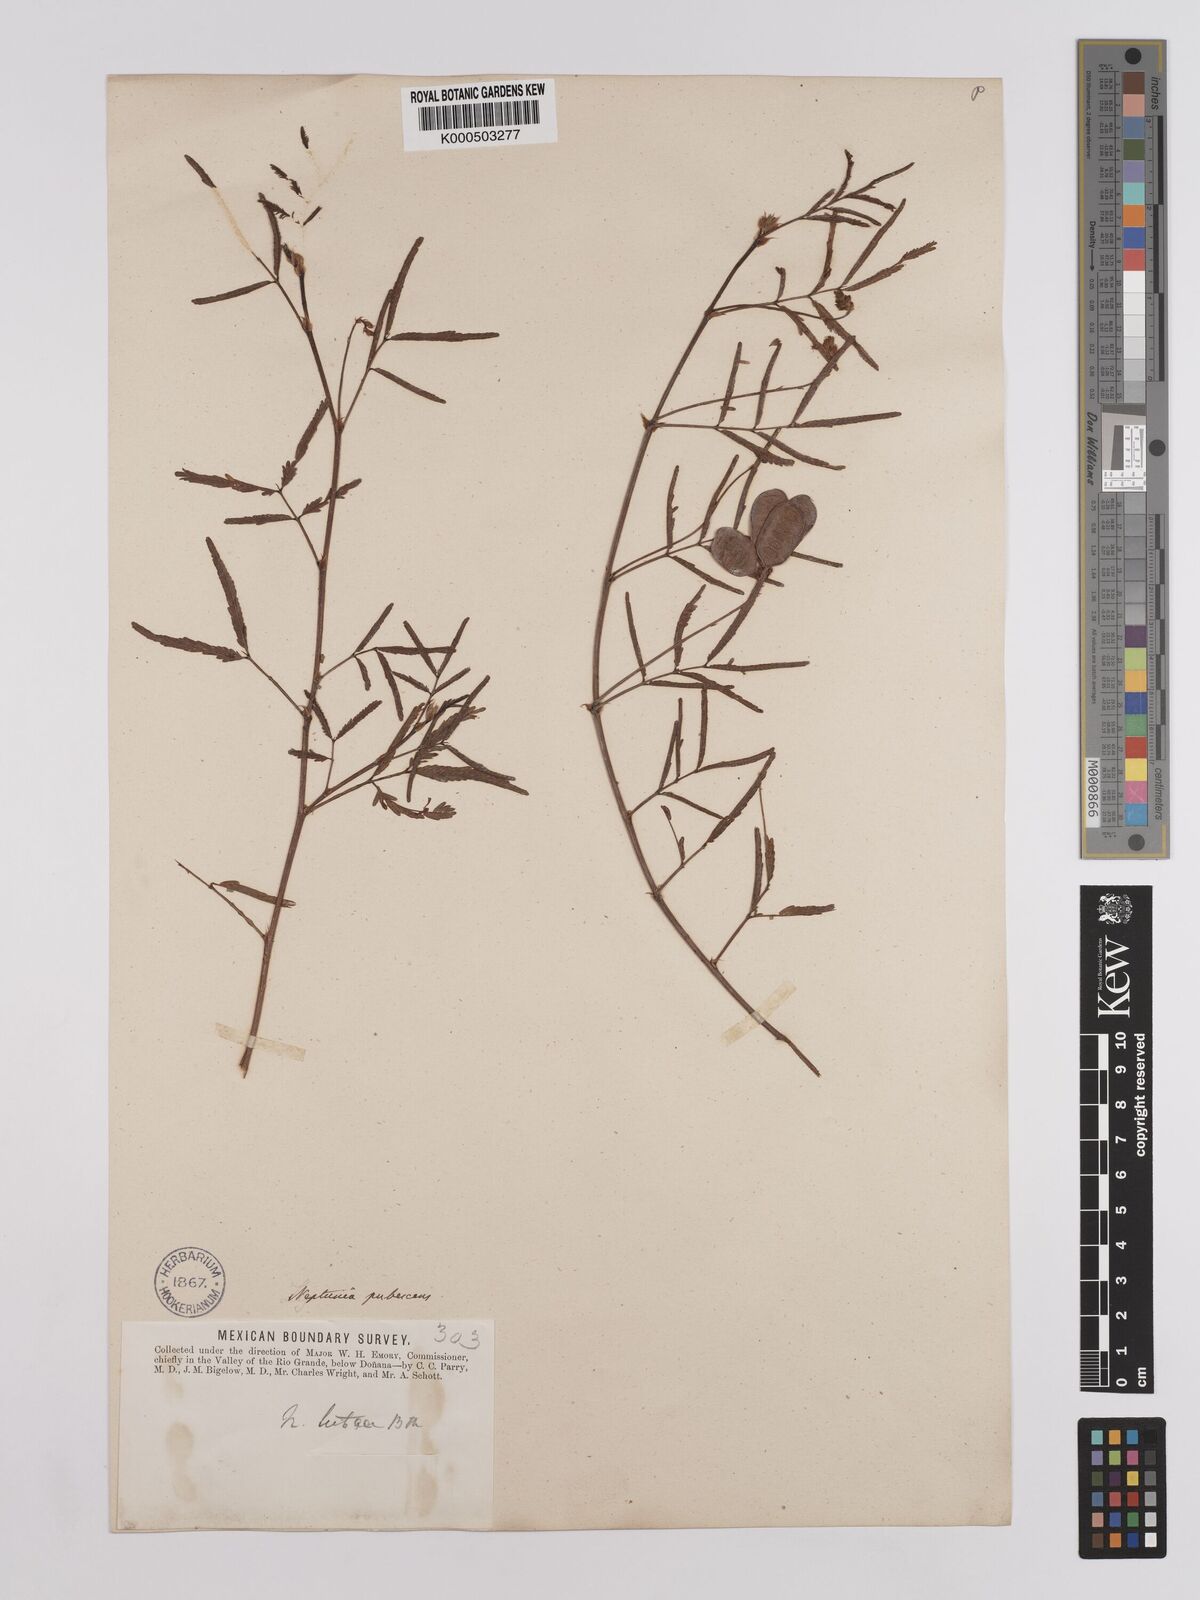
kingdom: Plantae
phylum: Tracheophyta
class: Magnoliopsida
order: Fabales
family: Fabaceae
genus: Neptunia
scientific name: Neptunia pubescens
